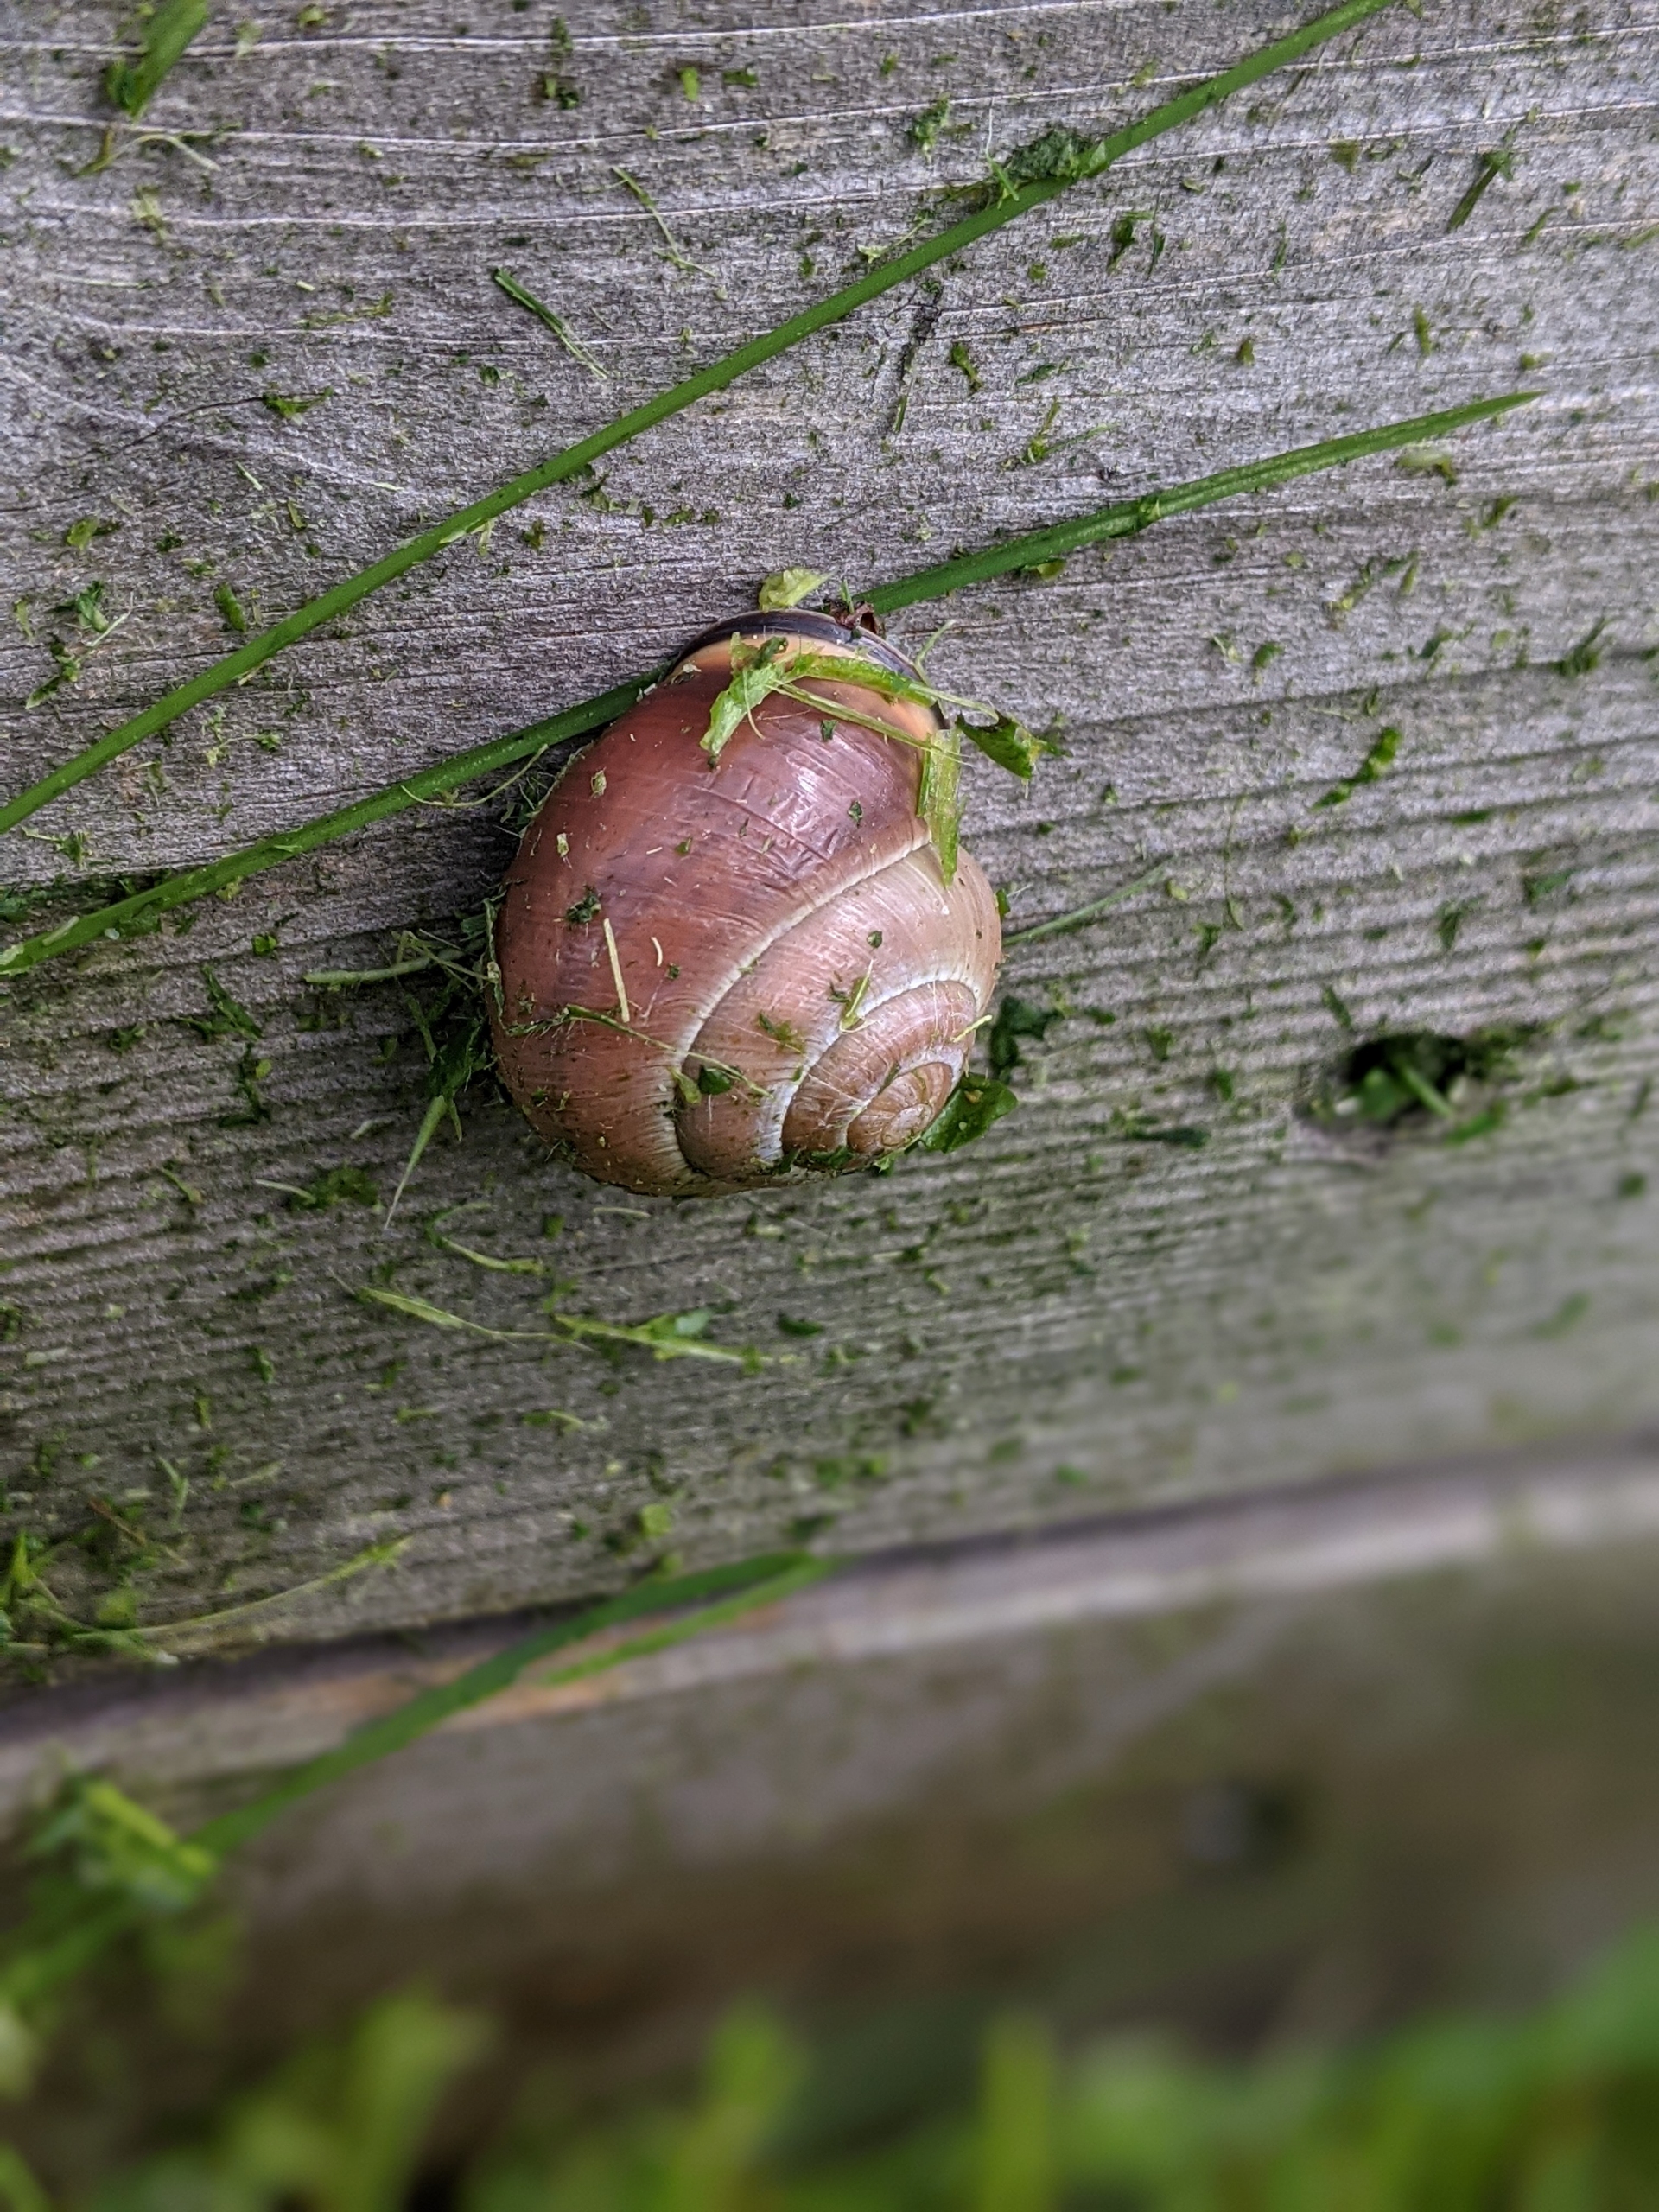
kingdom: Animalia
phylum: Mollusca
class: Gastropoda
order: Stylommatophora
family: Helicidae
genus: Cepaea
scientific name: Cepaea nemoralis
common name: Lundsnegl
